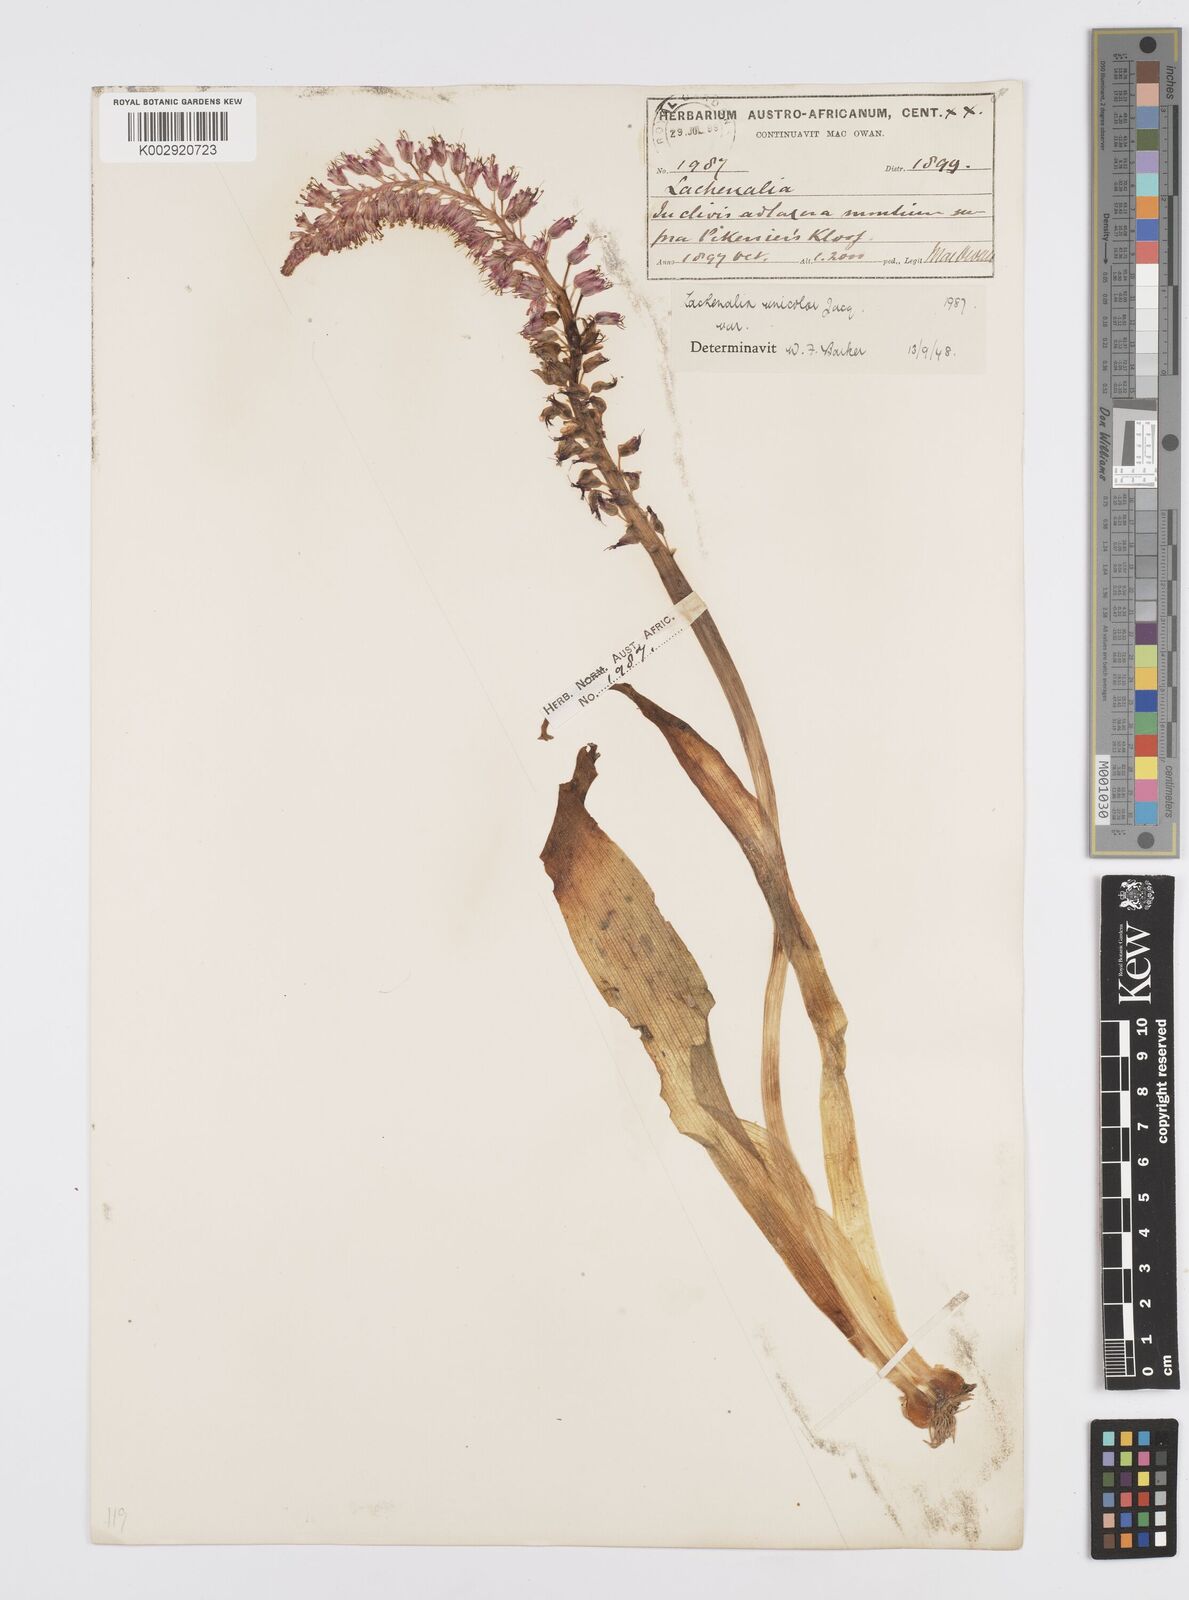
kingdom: Plantae
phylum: Tracheophyta
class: Liliopsida
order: Asparagales
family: Asparagaceae
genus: Lachenalia
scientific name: Lachenalia pallida
